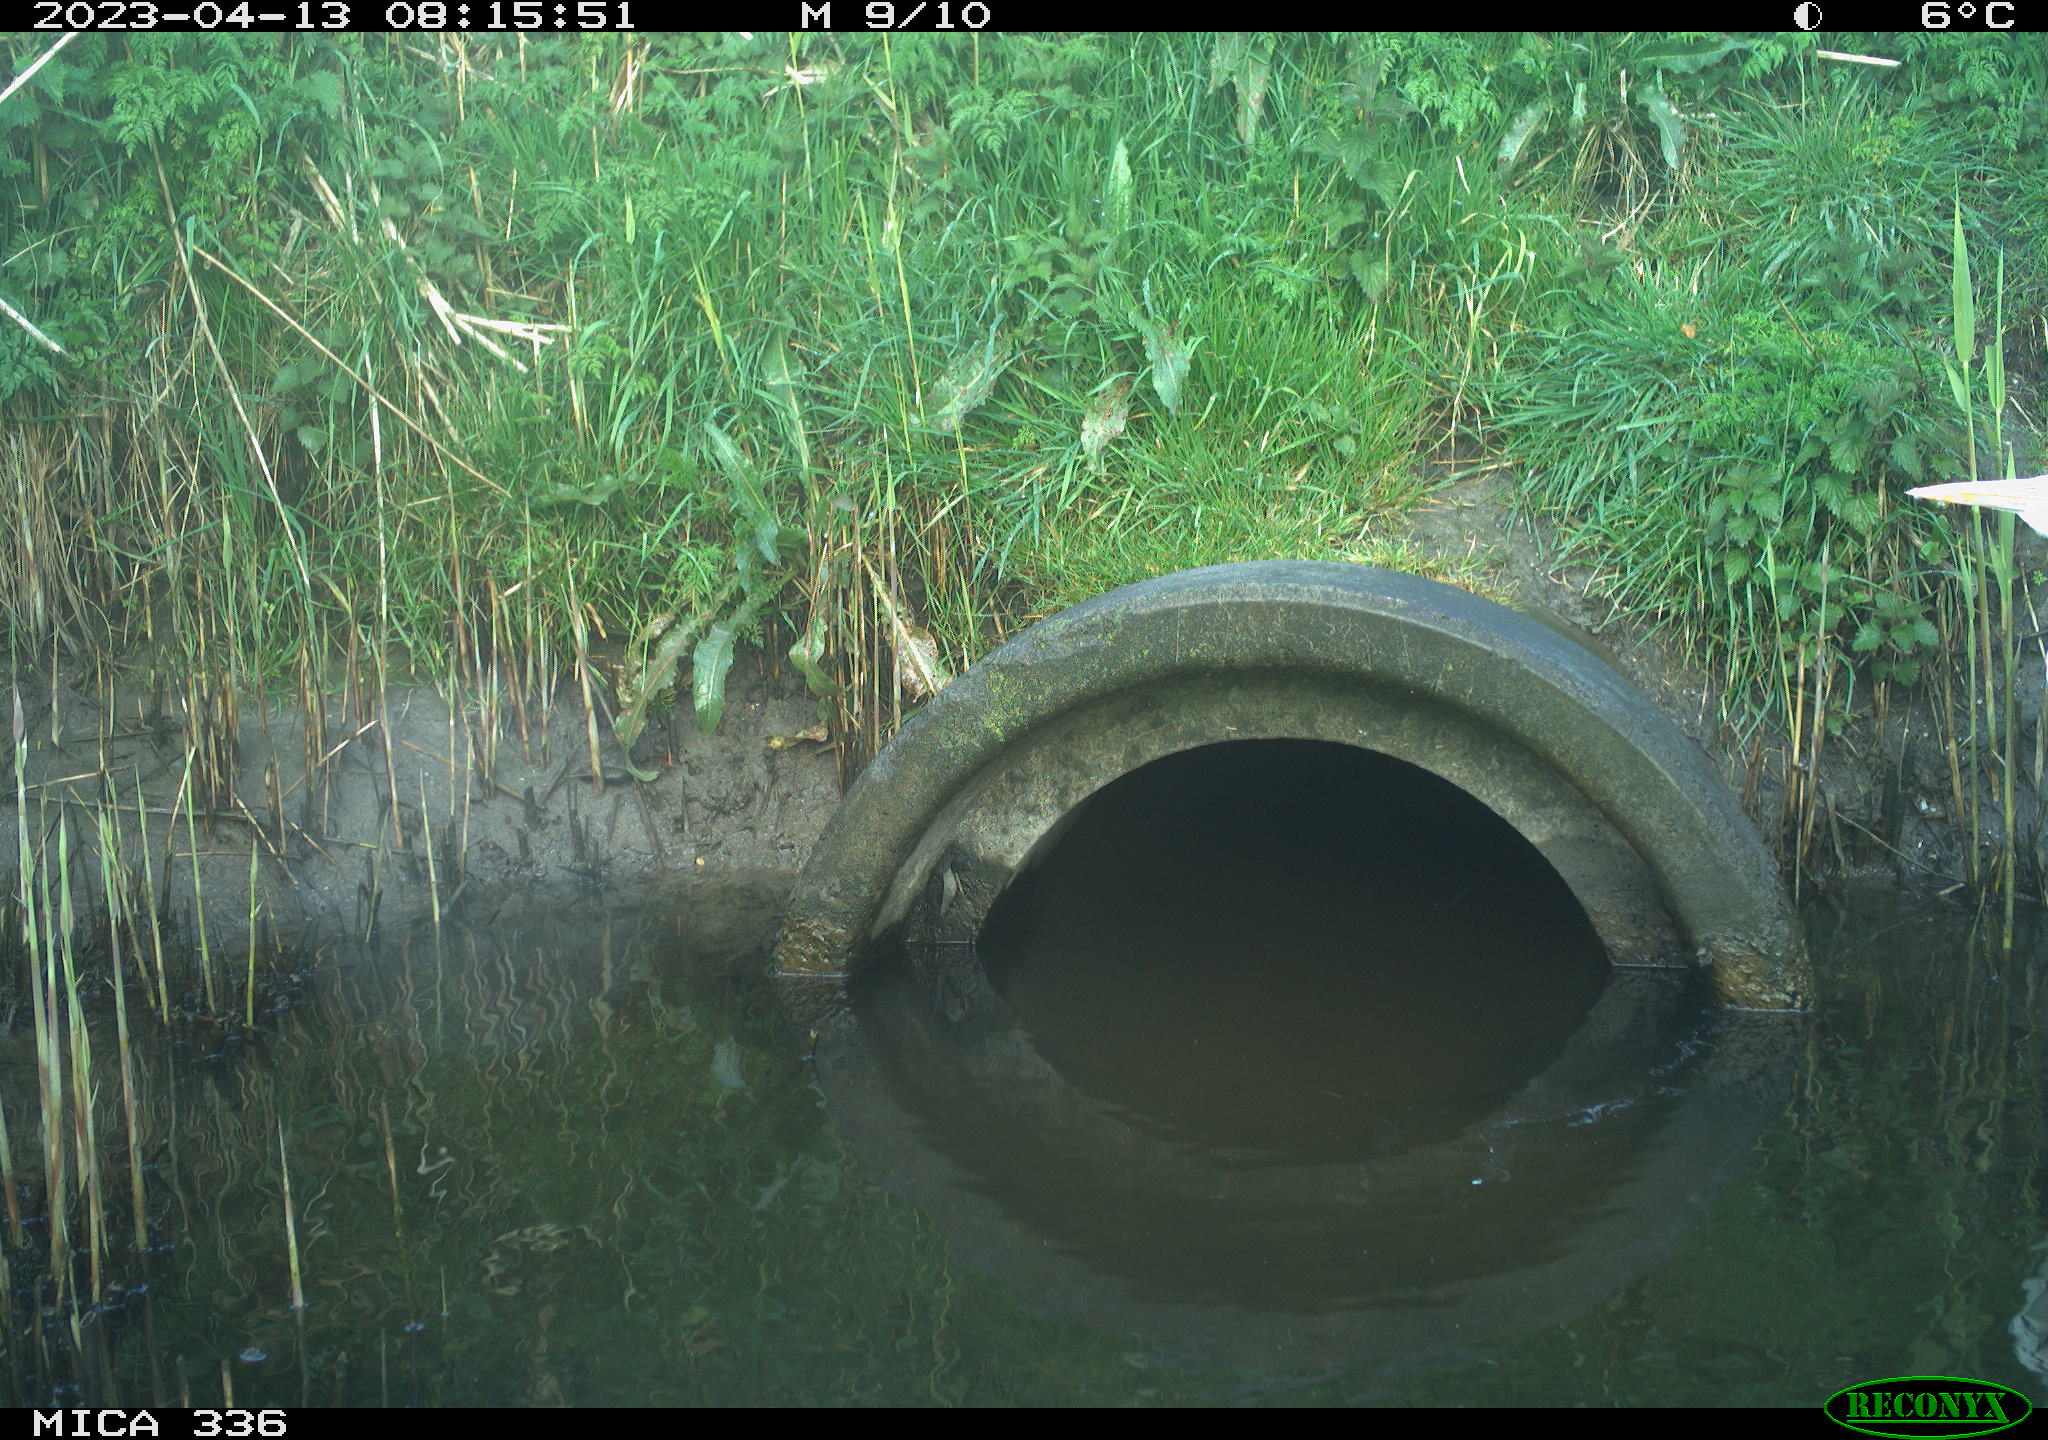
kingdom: Animalia
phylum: Chordata
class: Aves
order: Pelecaniformes
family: Ardeidae
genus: Ardea
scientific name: Ardea
